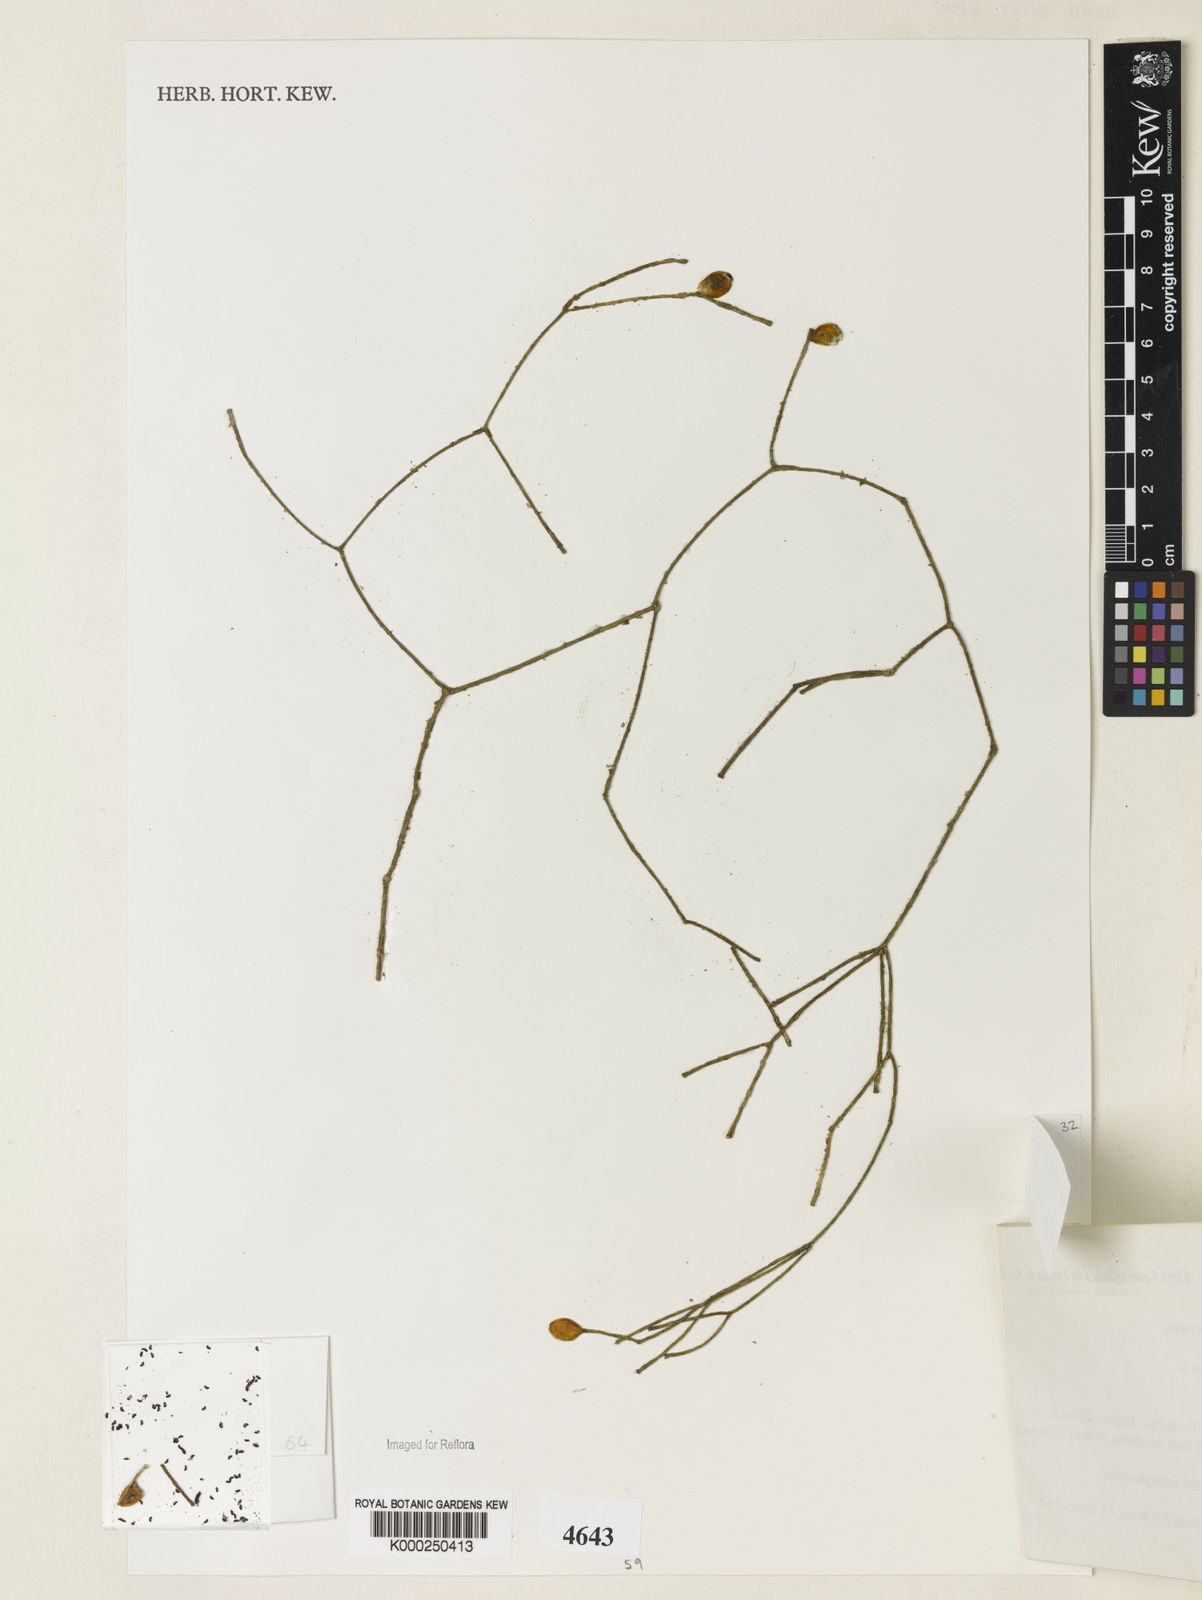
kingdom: Plantae
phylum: Tracheophyta
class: Magnoliopsida
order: Caryophyllales
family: Cactaceae
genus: Rhipsalis
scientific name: Rhipsalis
